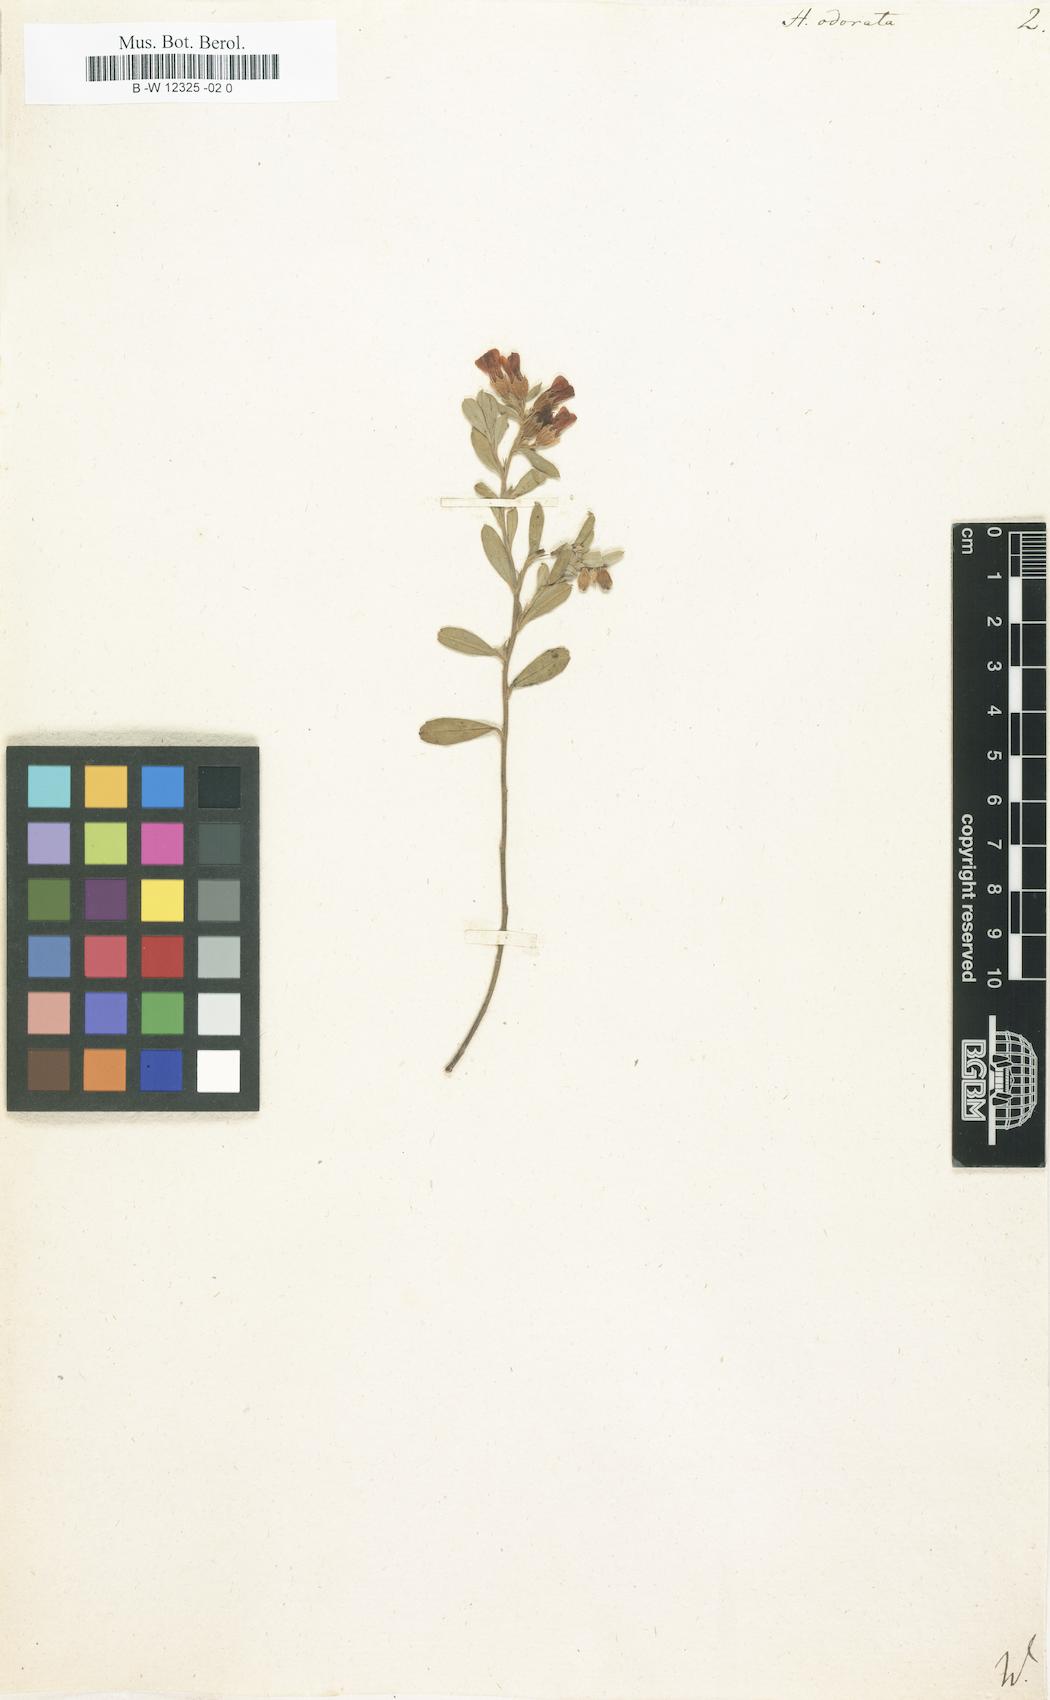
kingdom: Plantae
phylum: Tracheophyta
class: Magnoliopsida
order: Malvales
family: Malvaceae
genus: Hermannia
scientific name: Hermannia odorata
